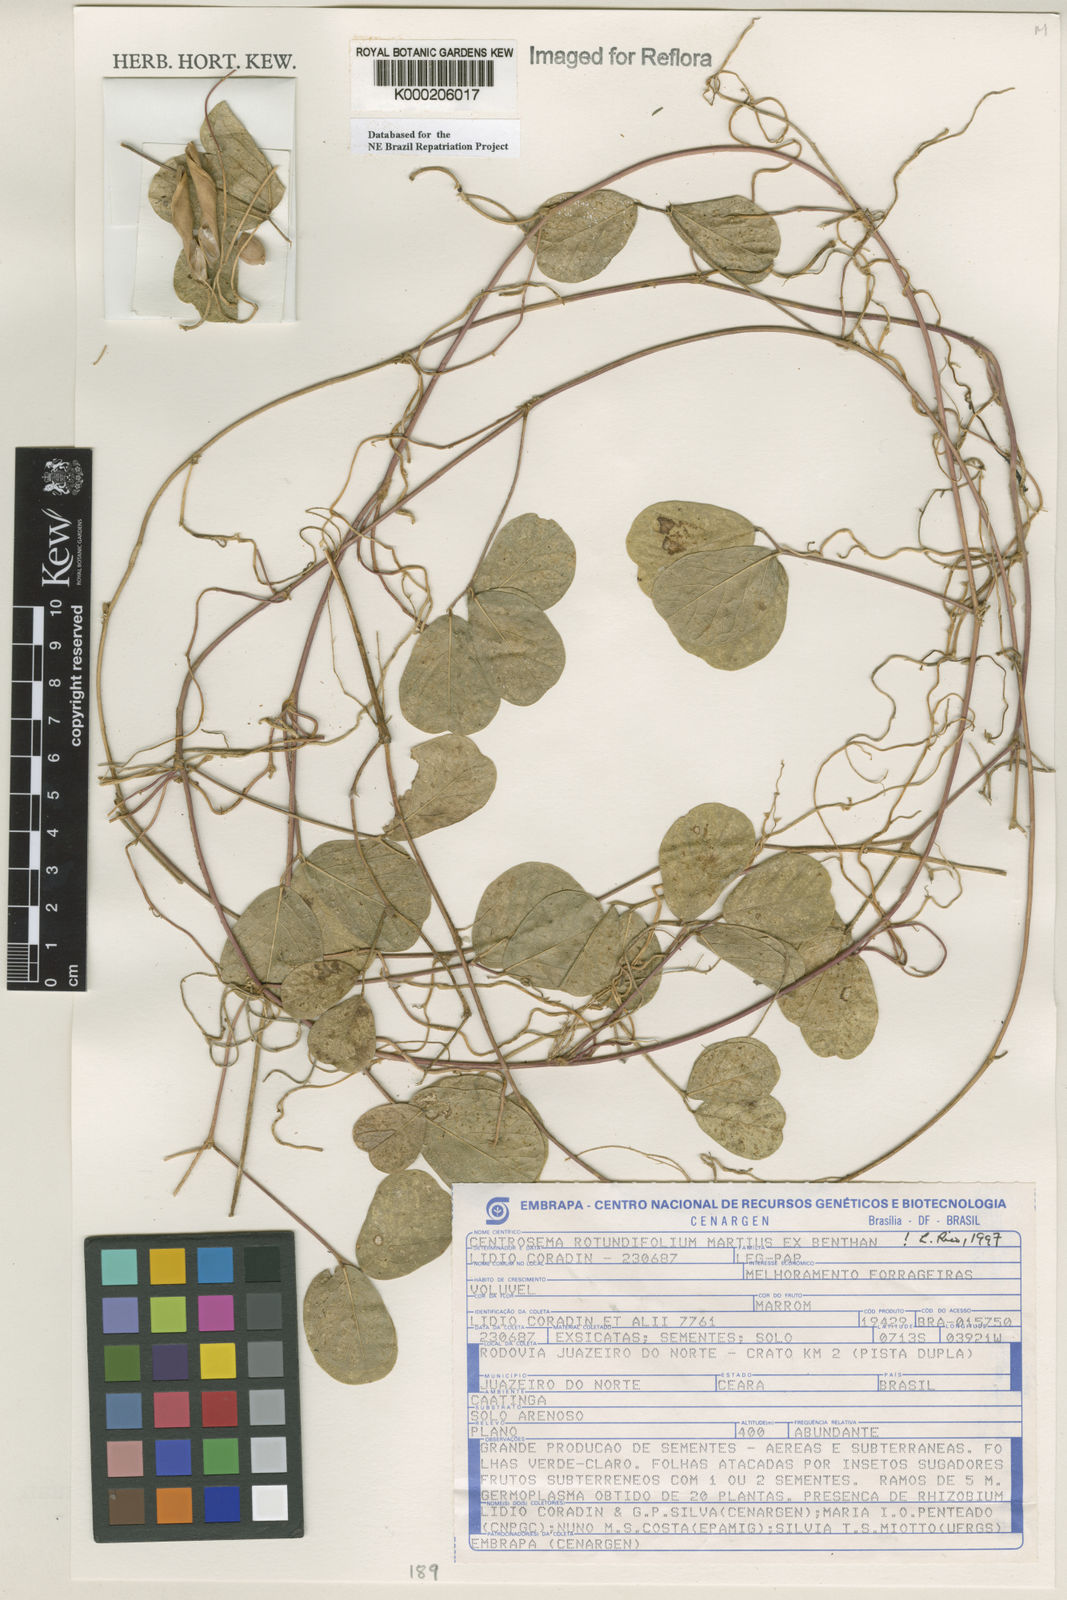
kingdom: Plantae
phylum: Tracheophyta
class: Magnoliopsida
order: Fabales
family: Fabaceae
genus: Centrosema
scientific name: Centrosema rotundifolium
